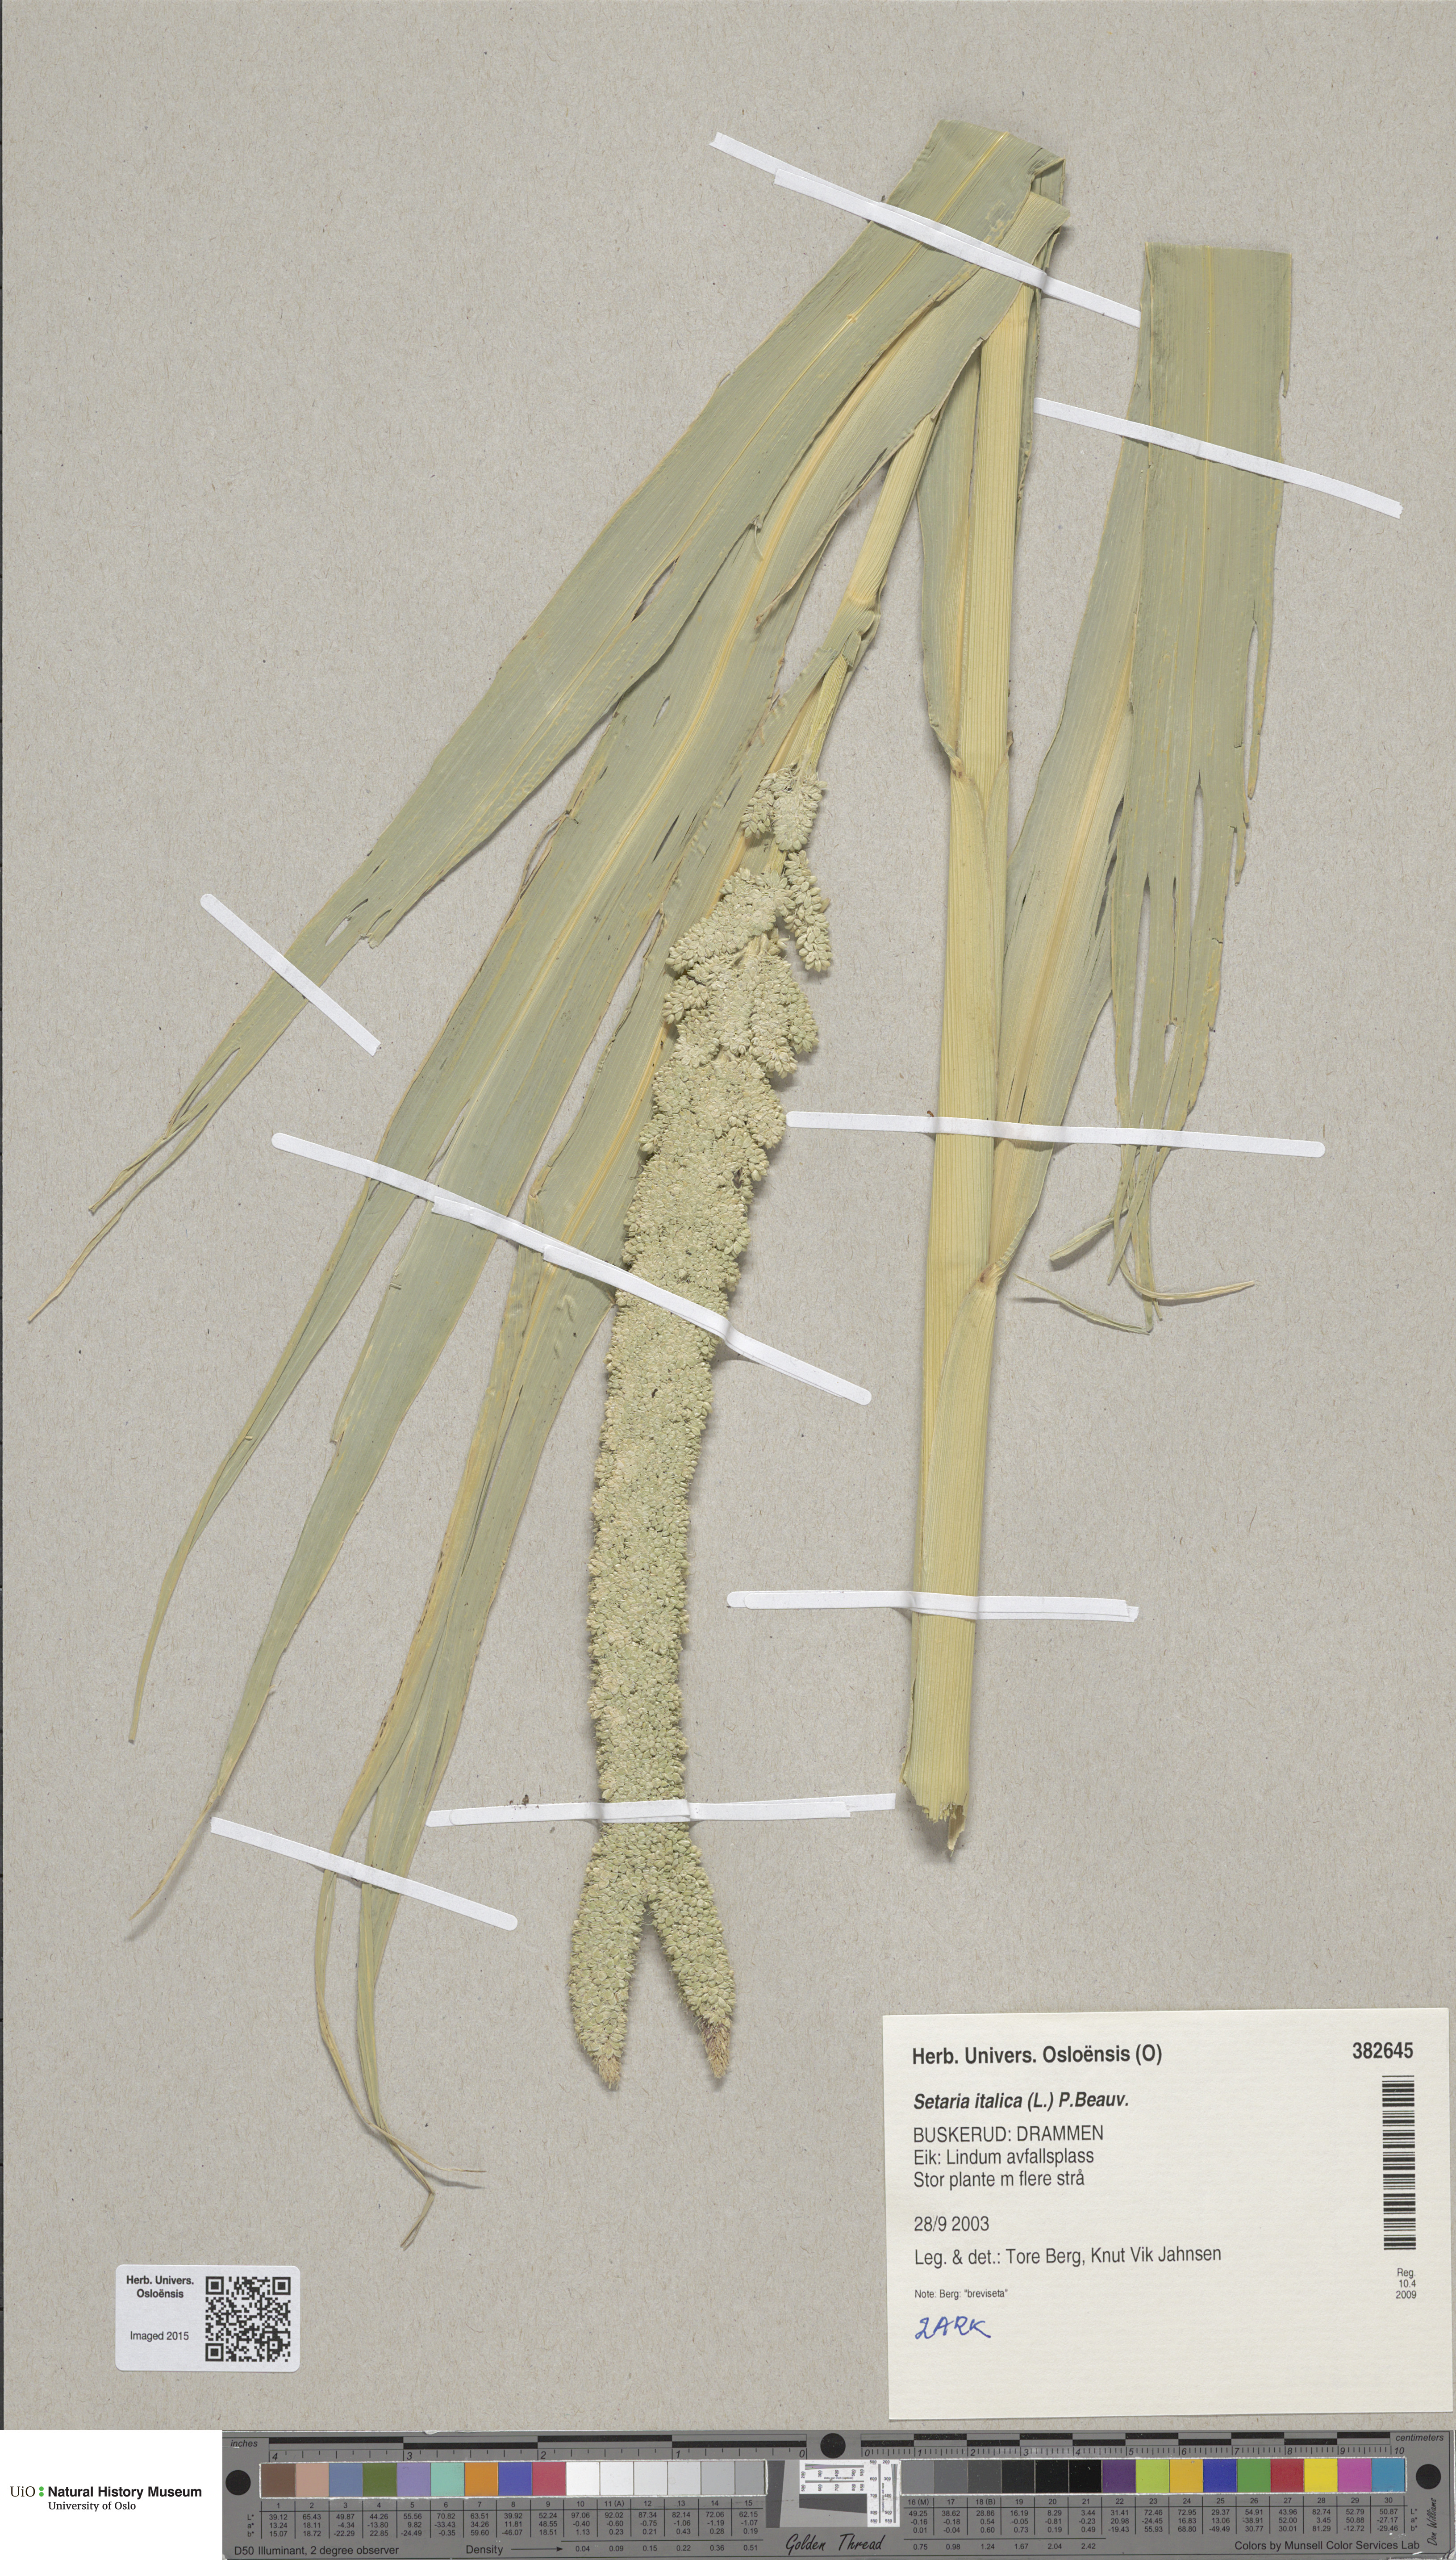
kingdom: Plantae
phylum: Tracheophyta
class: Liliopsida
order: Poales
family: Poaceae
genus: Setaria
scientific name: Setaria italica
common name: Foxtail bristle-grass
